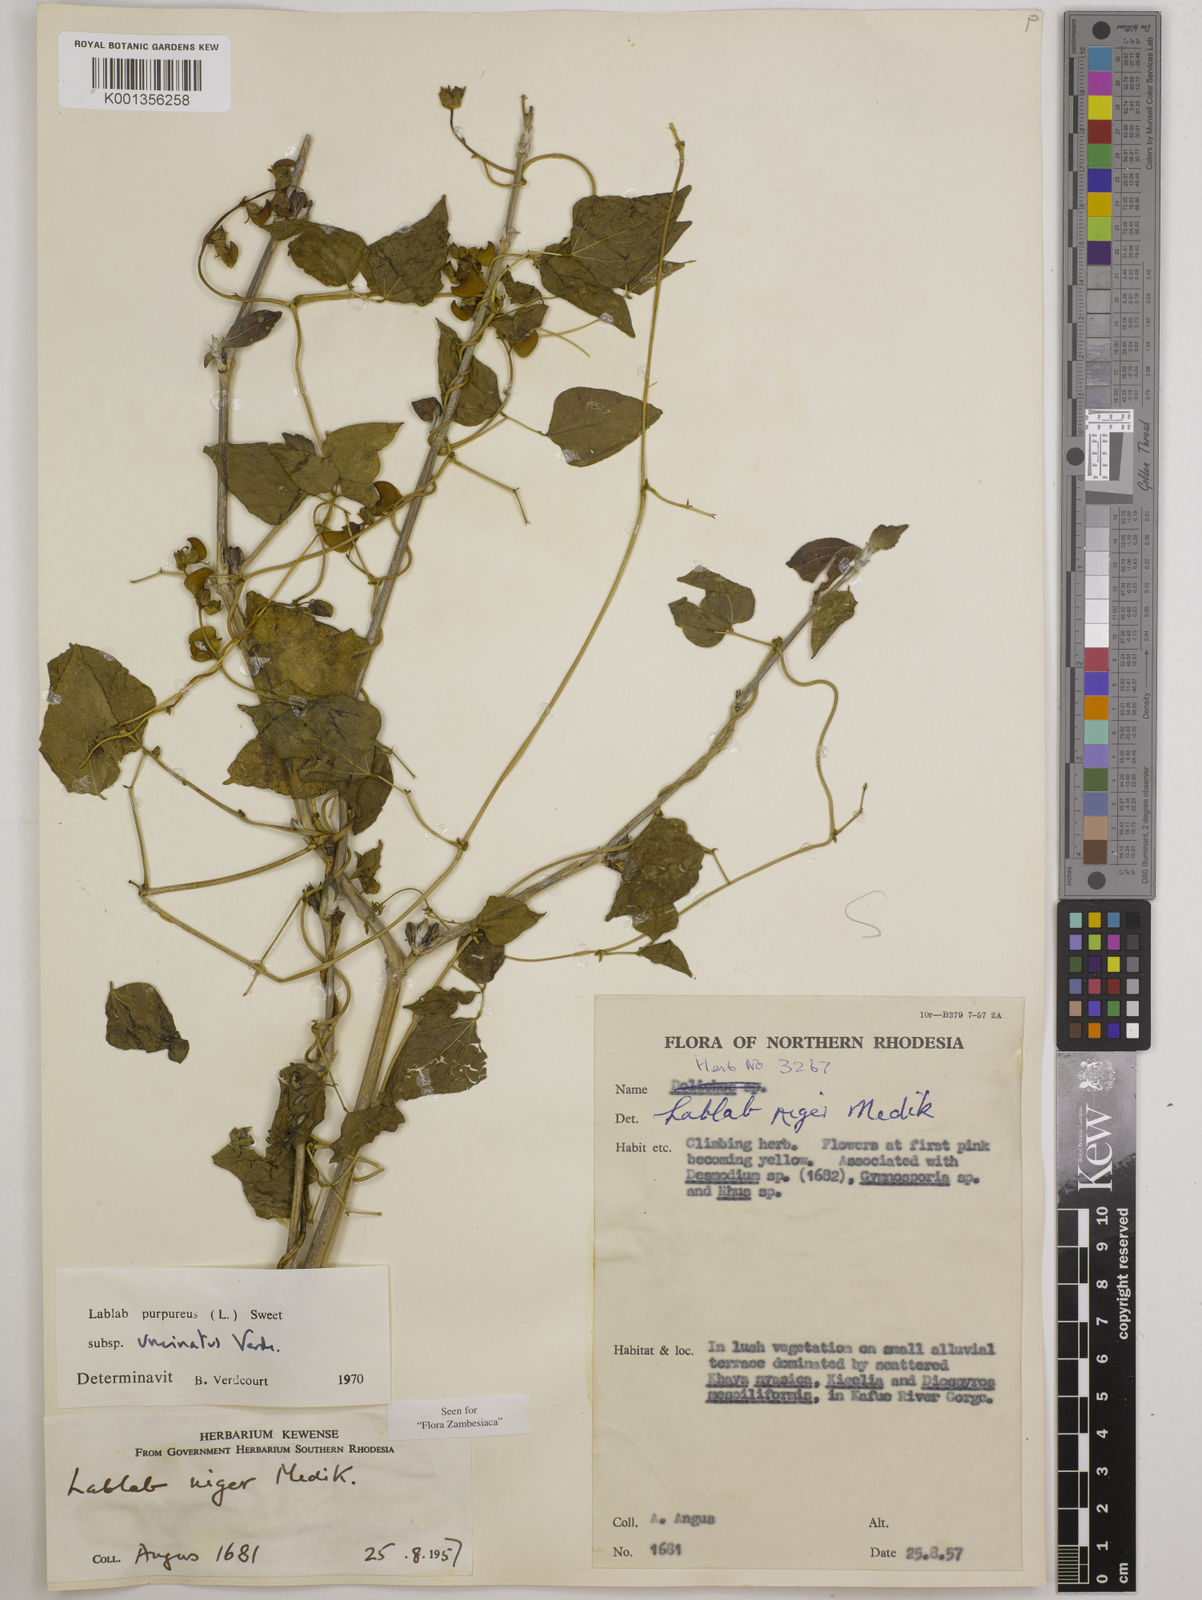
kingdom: Plantae
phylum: Tracheophyta
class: Magnoliopsida
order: Fabales
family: Fabaceae
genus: Lablab
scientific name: Lablab purpureus
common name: Lablab-bean
